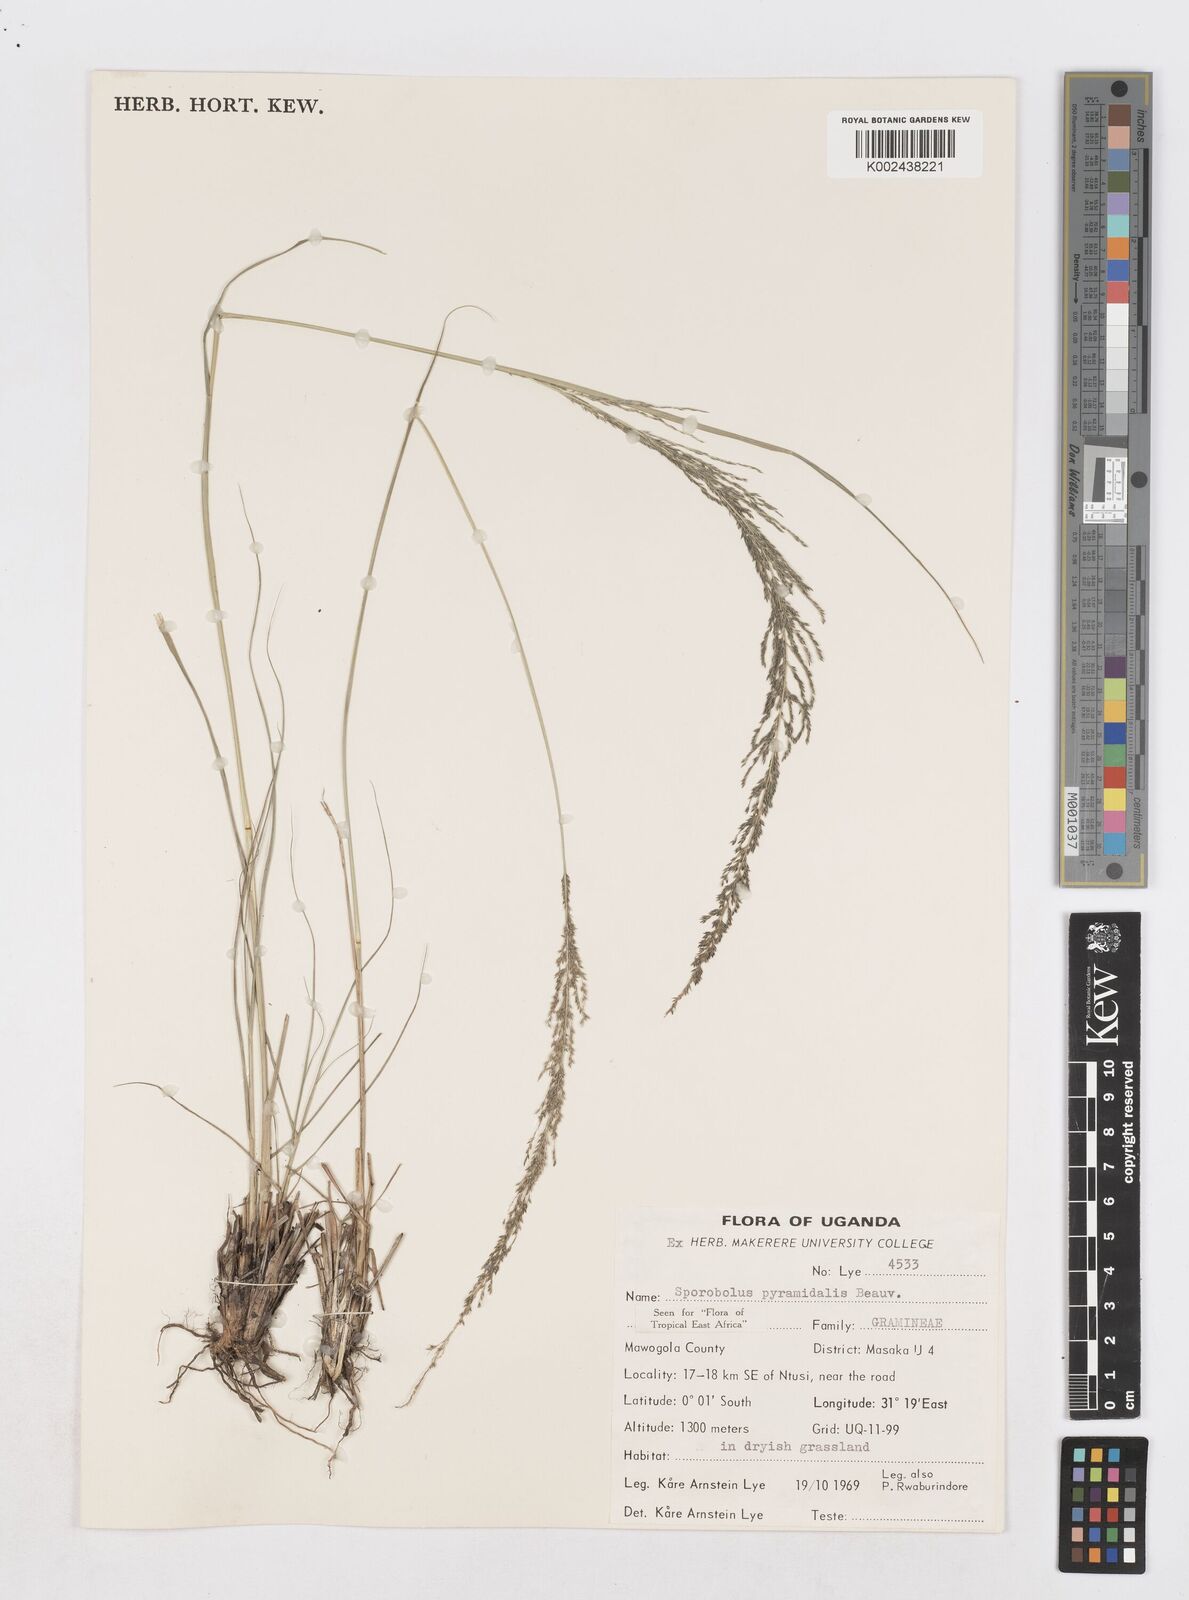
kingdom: Plantae
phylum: Tracheophyta
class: Liliopsida
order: Poales
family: Poaceae
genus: Sporobolus
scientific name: Sporobolus pyramidalis
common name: West indian dropseed
